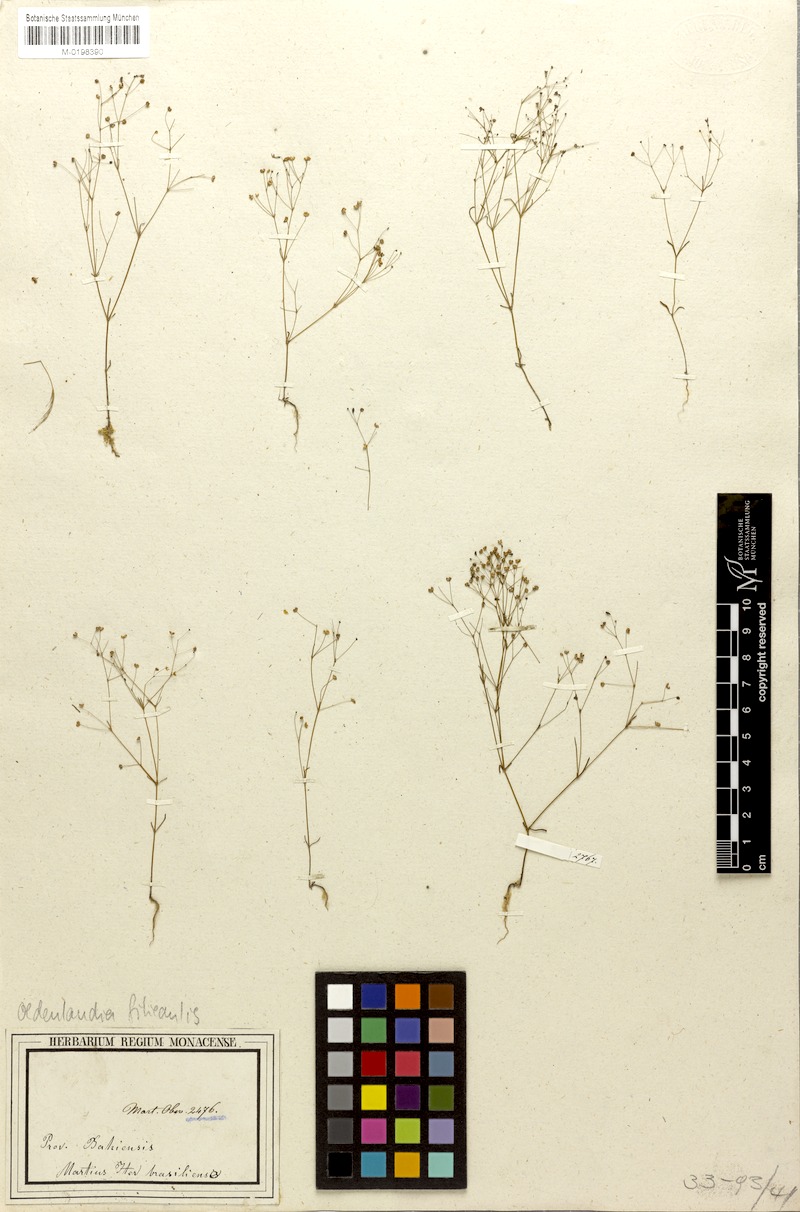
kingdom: Plantae
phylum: Tracheophyta
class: Magnoliopsida
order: Gentianales
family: Rubiaceae
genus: Oldenlandia
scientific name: Oldenlandia filicaulis
